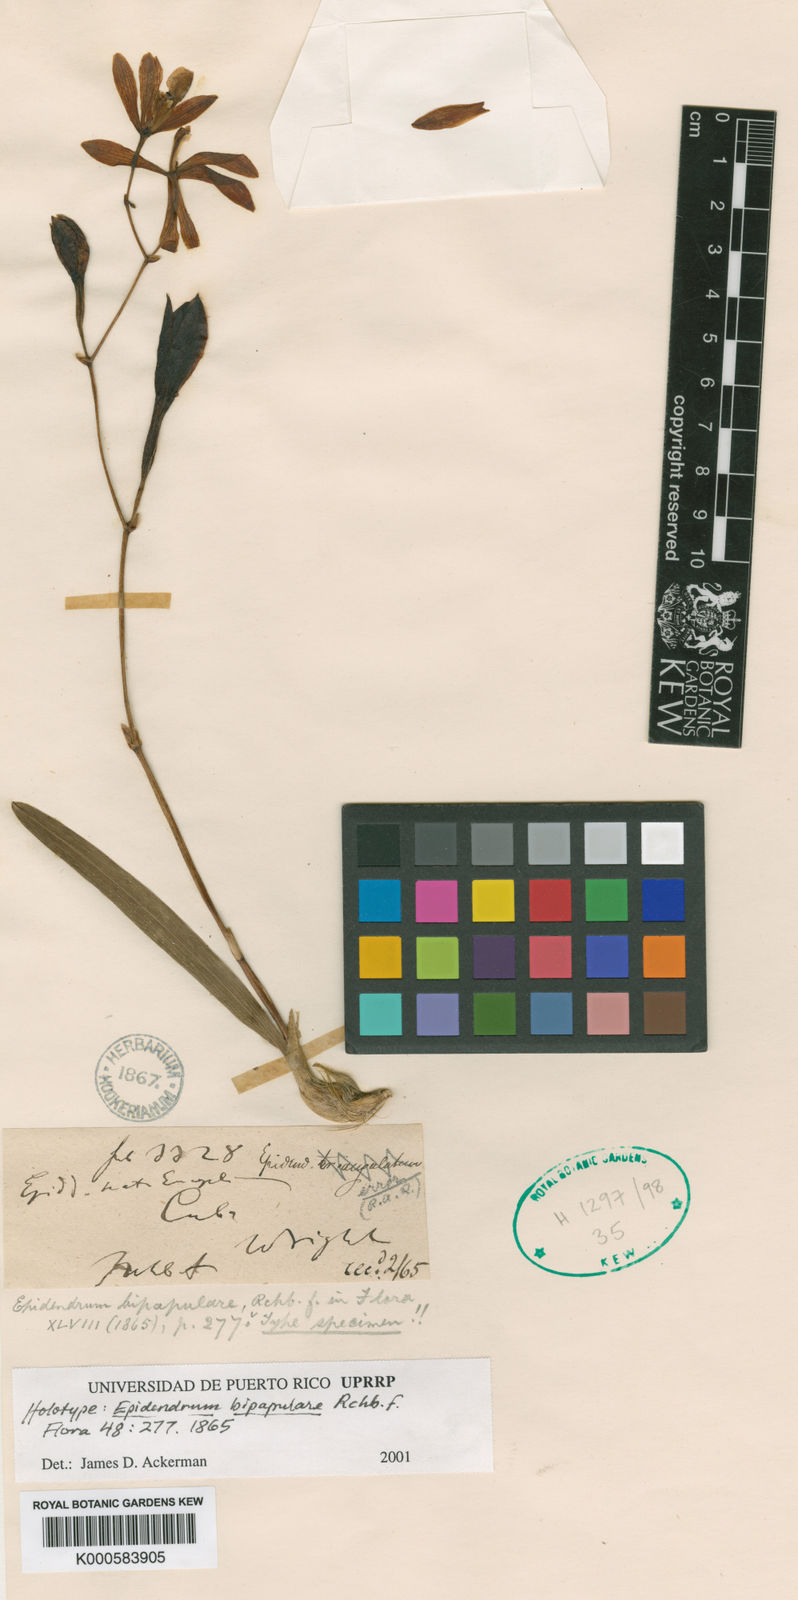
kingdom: Plantae
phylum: Tracheophyta
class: Liliopsida
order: Asparagales
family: Orchidaceae
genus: Encyclia
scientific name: Encyclia
